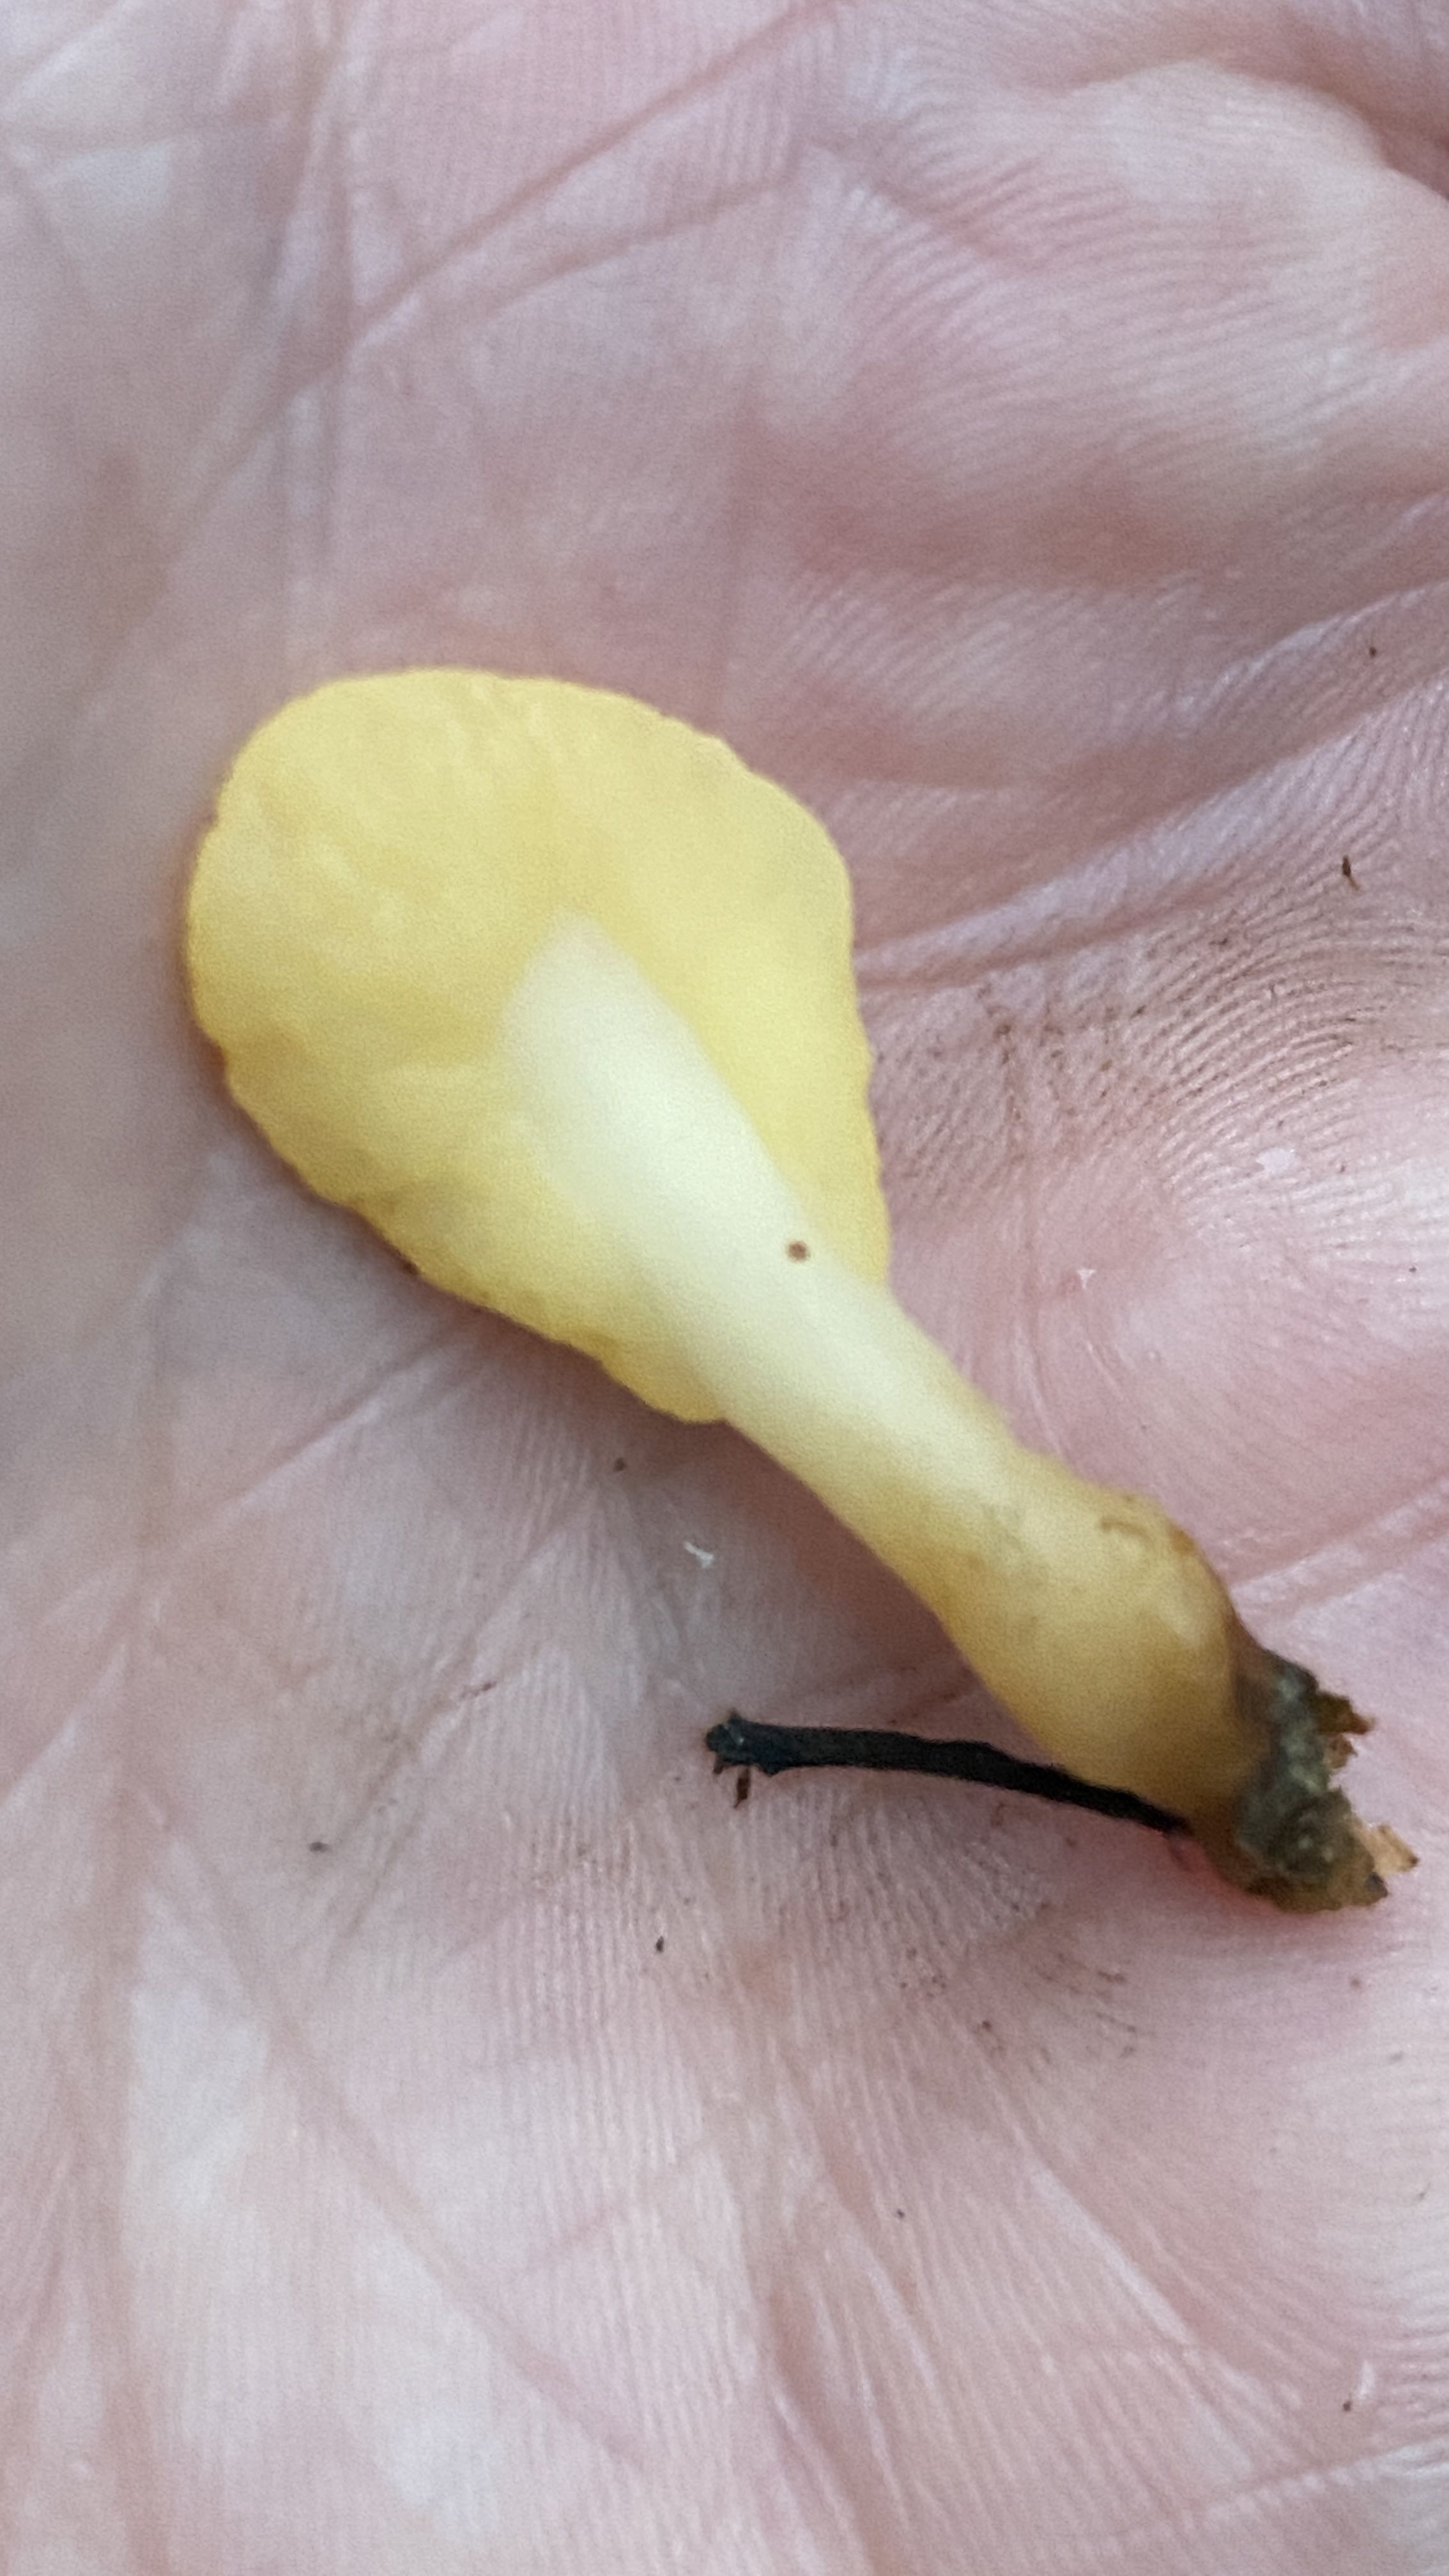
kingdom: Fungi
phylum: Ascomycota
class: Leotiomycetes
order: Rhytismatales
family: Cudoniaceae
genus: Spathularia
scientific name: Spathularia flavida
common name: gul spatelsvamp
